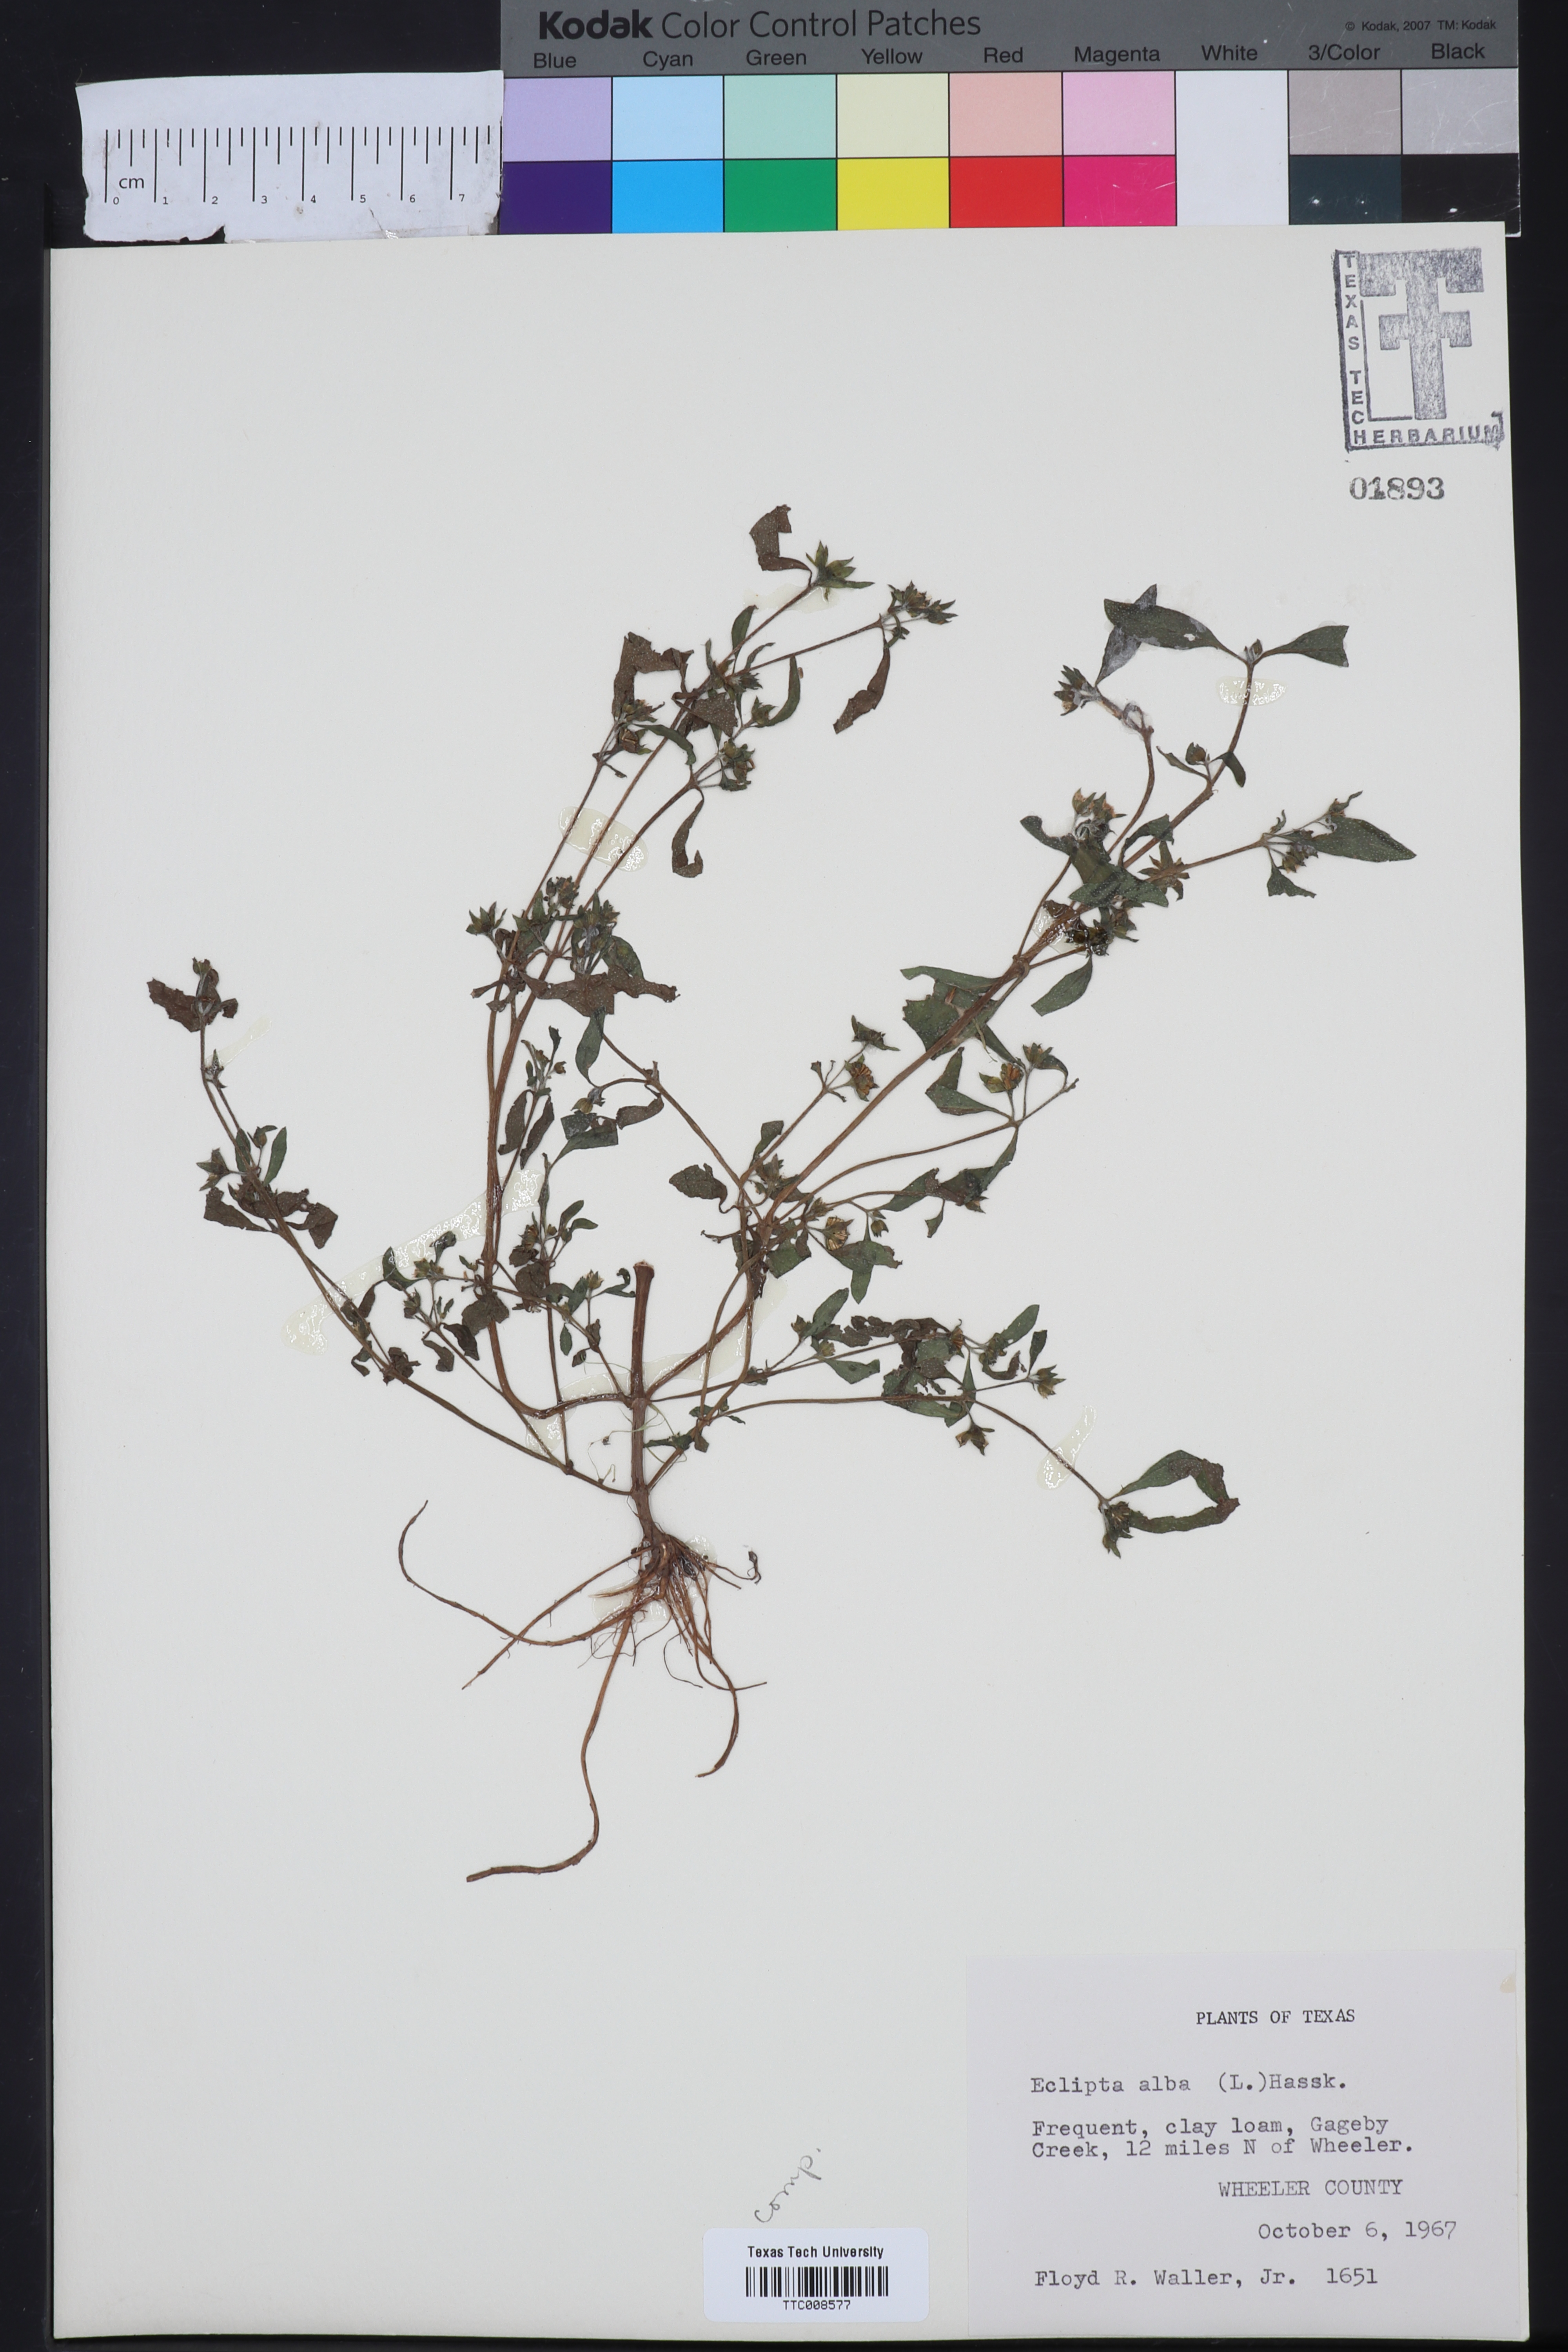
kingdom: Plantae
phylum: Tracheophyta
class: Magnoliopsida
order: Asterales
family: Asteraceae
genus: Eclipta
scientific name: Eclipta alba
